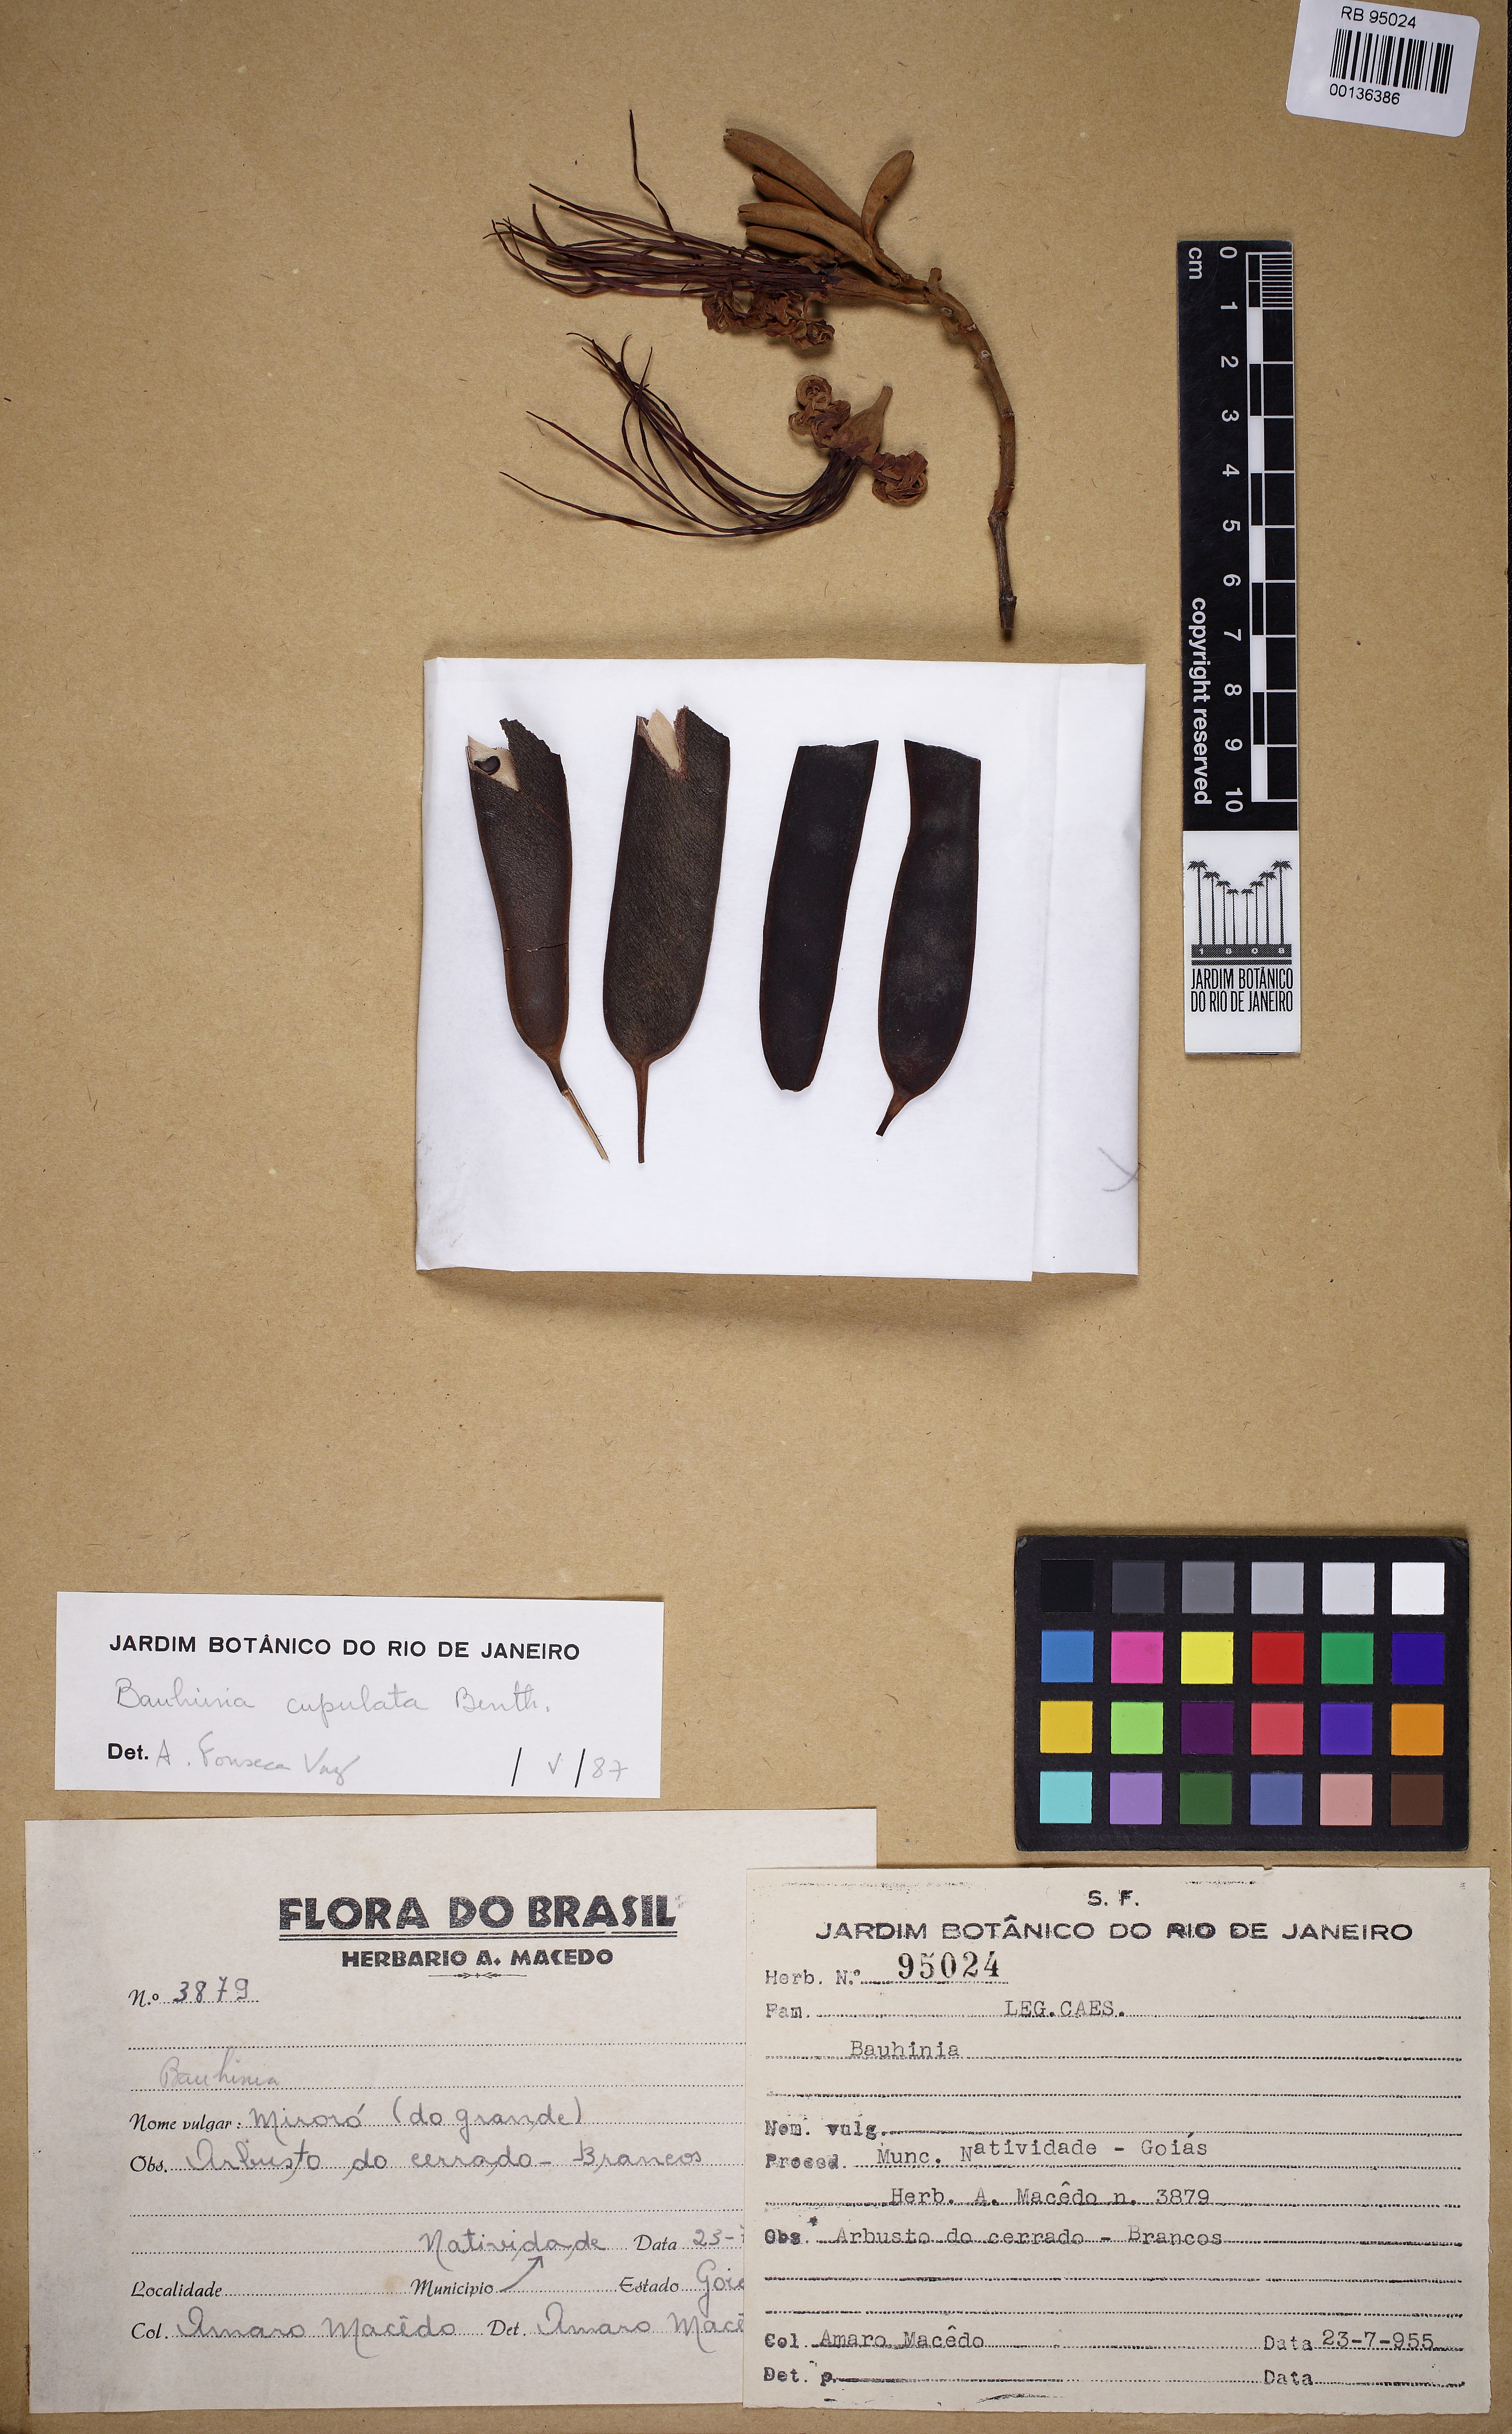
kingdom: Plantae
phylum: Tracheophyta
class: Magnoliopsida
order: Fabales
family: Fabaceae
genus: Bauhinia
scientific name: Bauhinia cupulata
